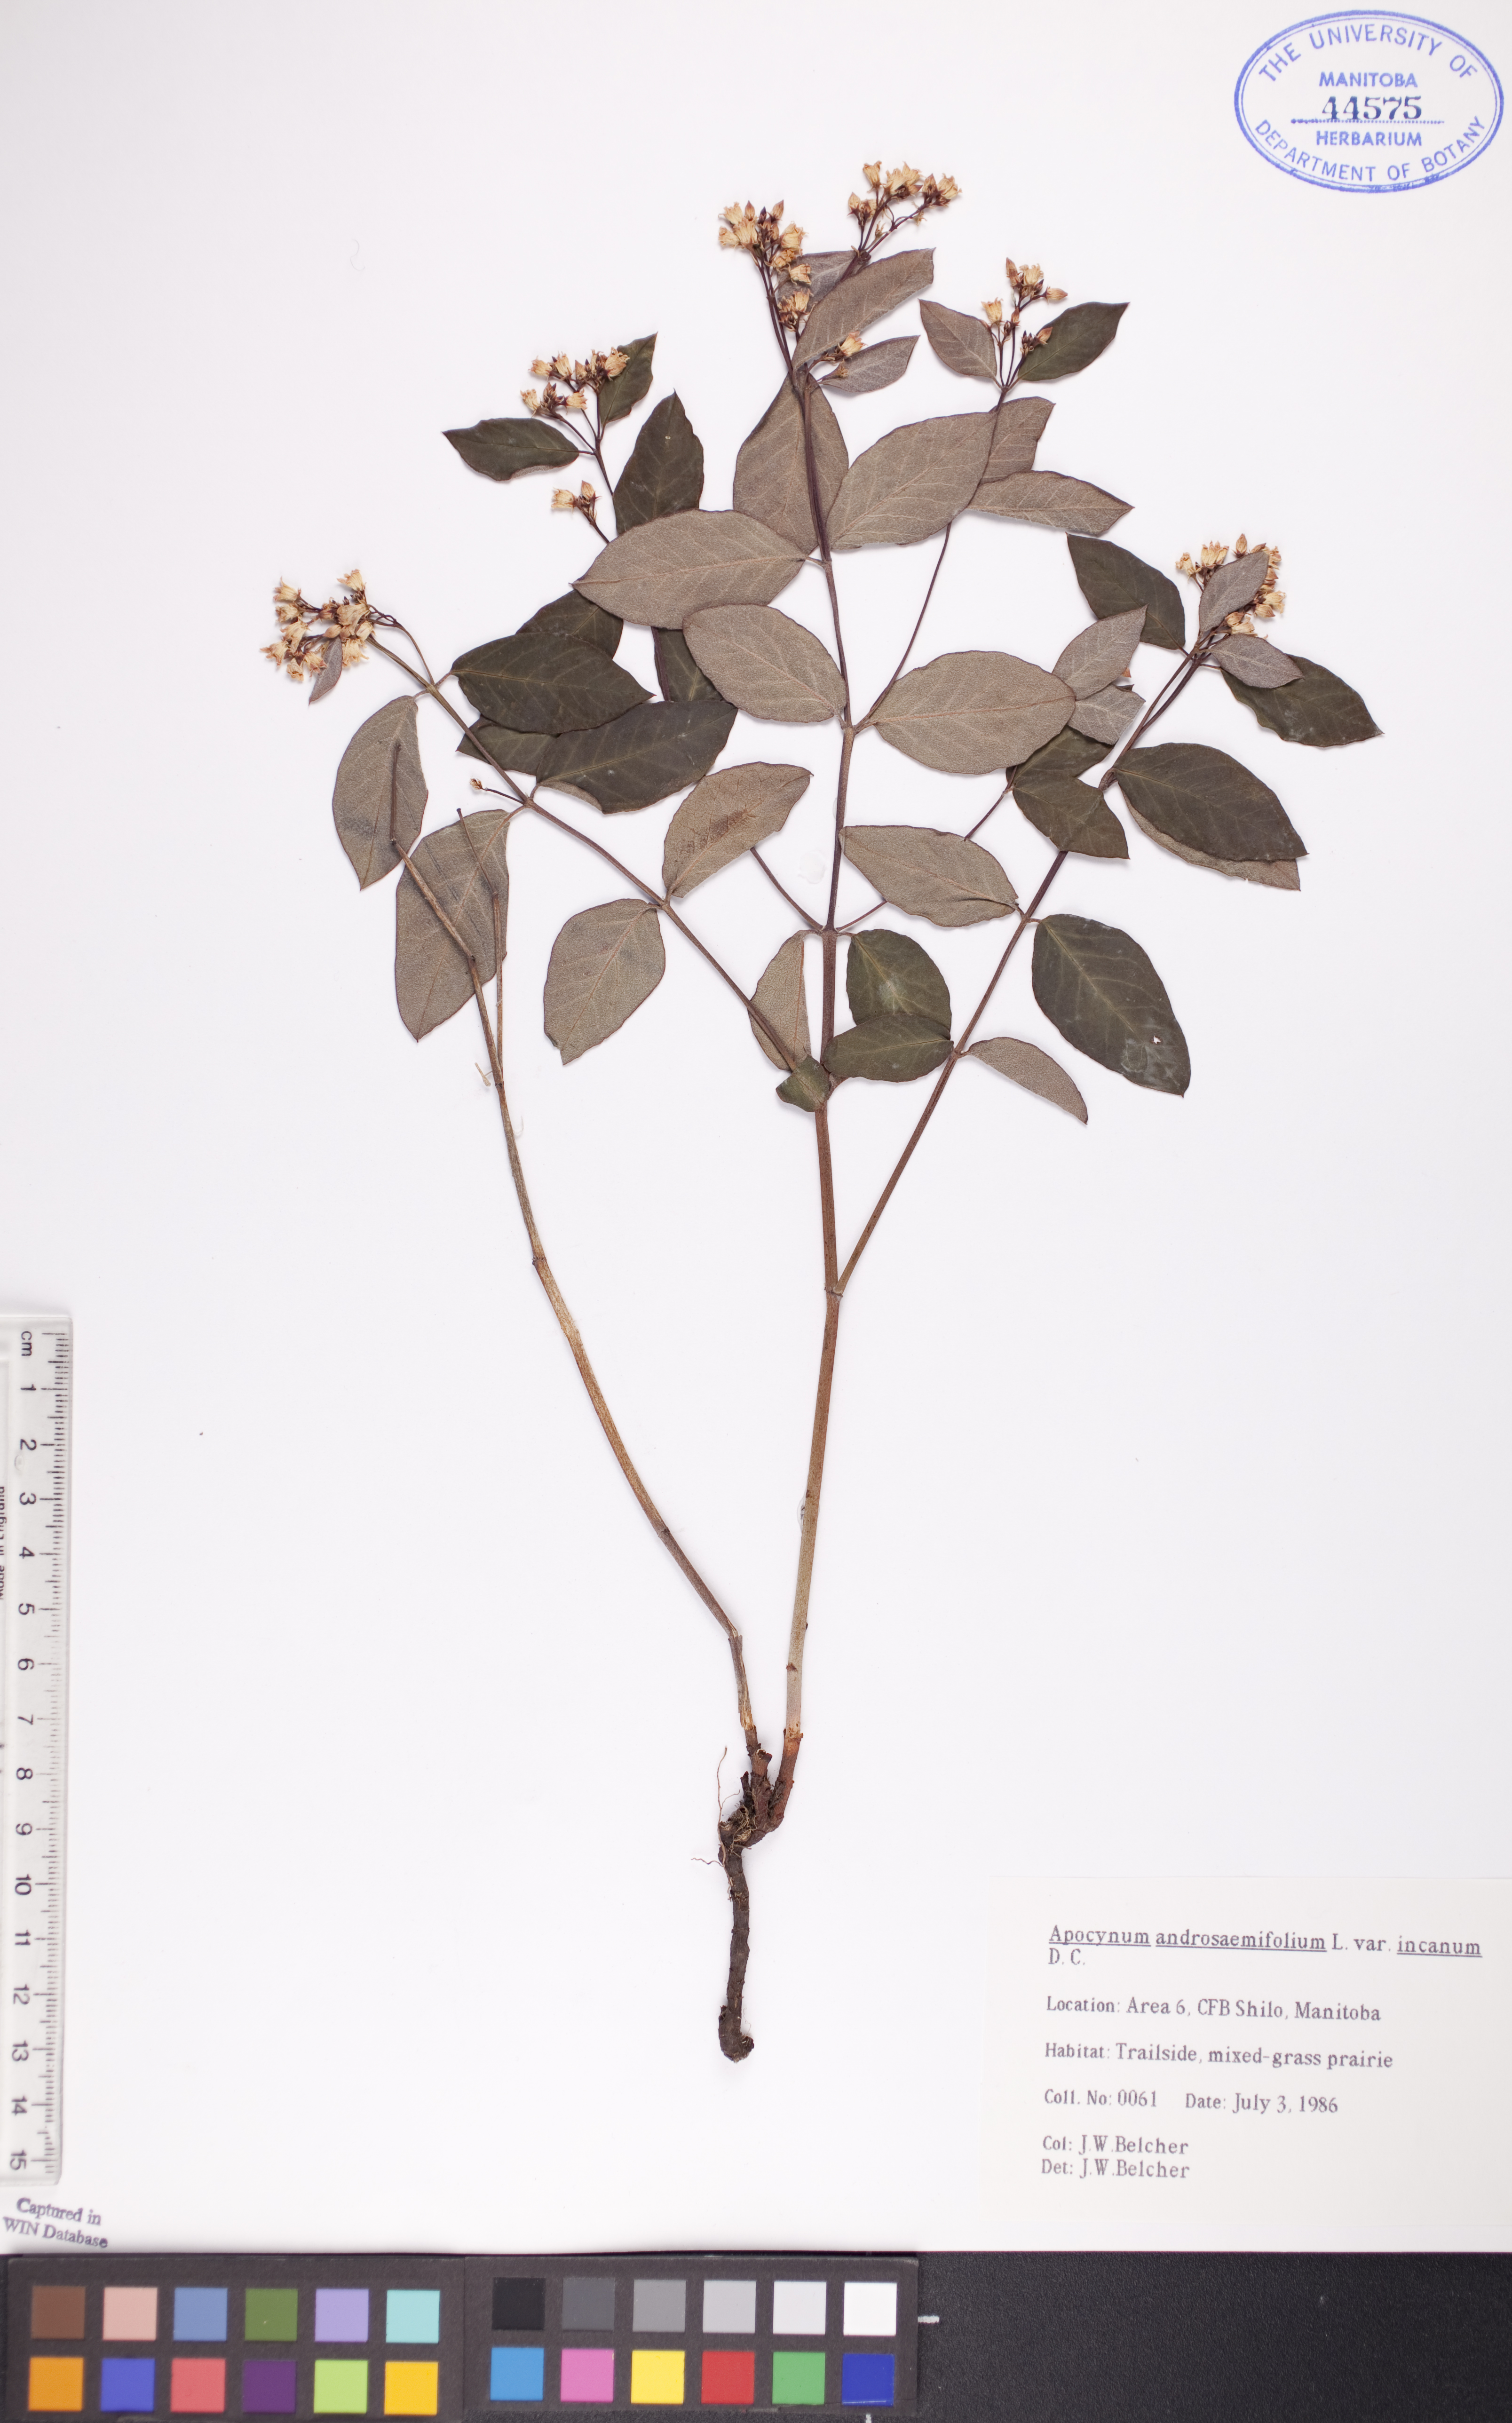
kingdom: Plantae
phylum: Tracheophyta
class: Magnoliopsida
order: Gentianales
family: Apocynaceae
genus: Apocynum
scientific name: Apocynum androsaemifolium
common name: Spreading dogbane
